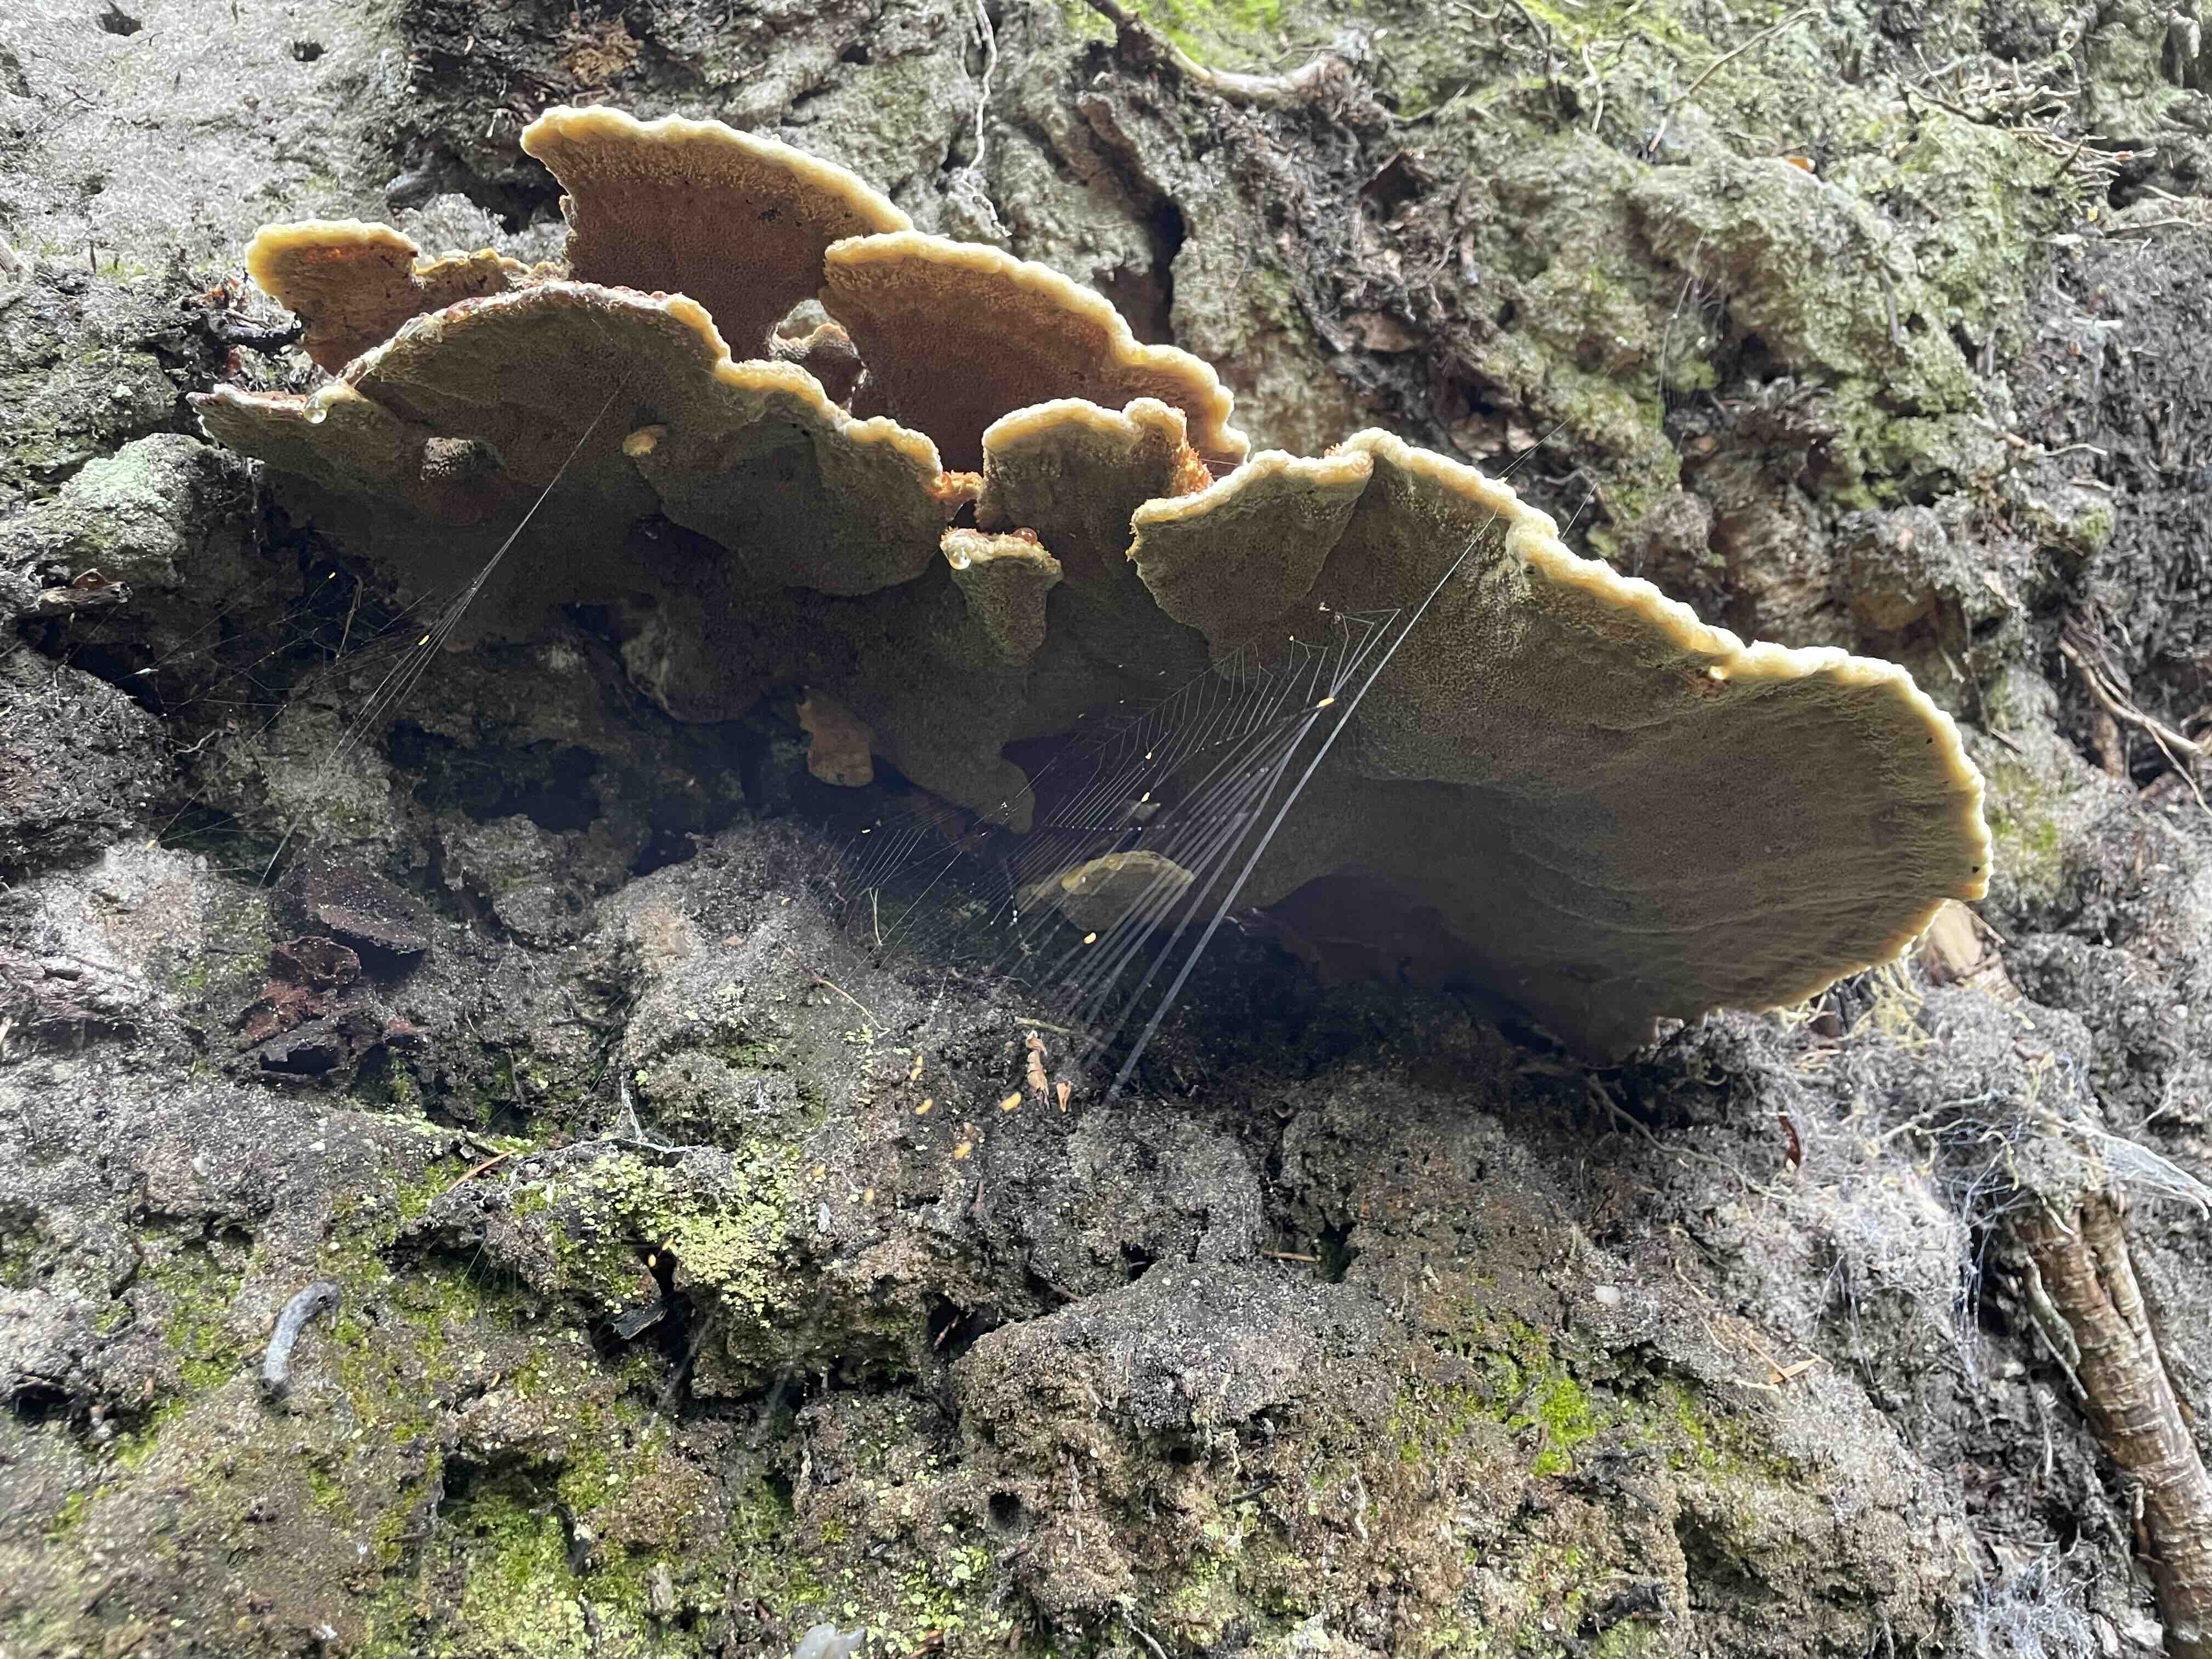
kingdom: Fungi
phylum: Basidiomycota
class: Agaricomycetes
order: Polyporales
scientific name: Polyporales
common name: poresvampordenen
